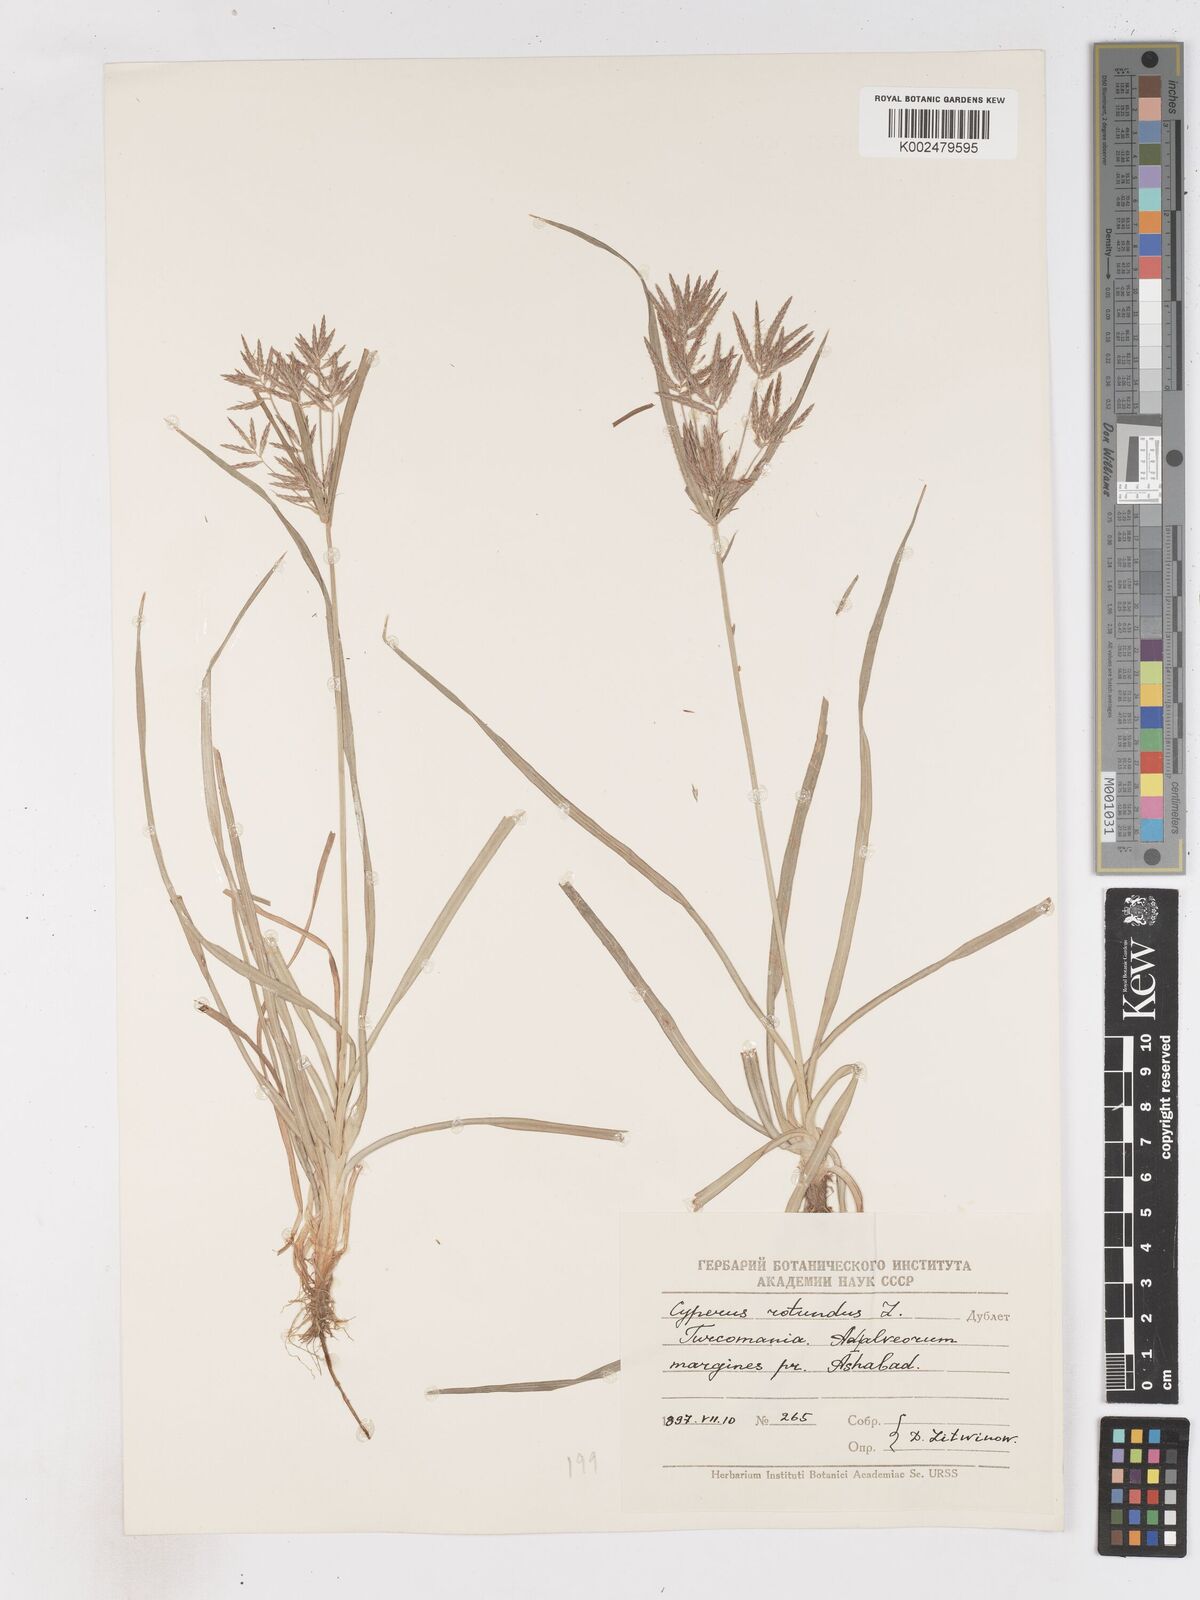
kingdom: Plantae
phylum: Tracheophyta
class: Liliopsida
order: Poales
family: Cyperaceae
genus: Cyperus
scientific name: Cyperus rotundus
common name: Nutgrass
